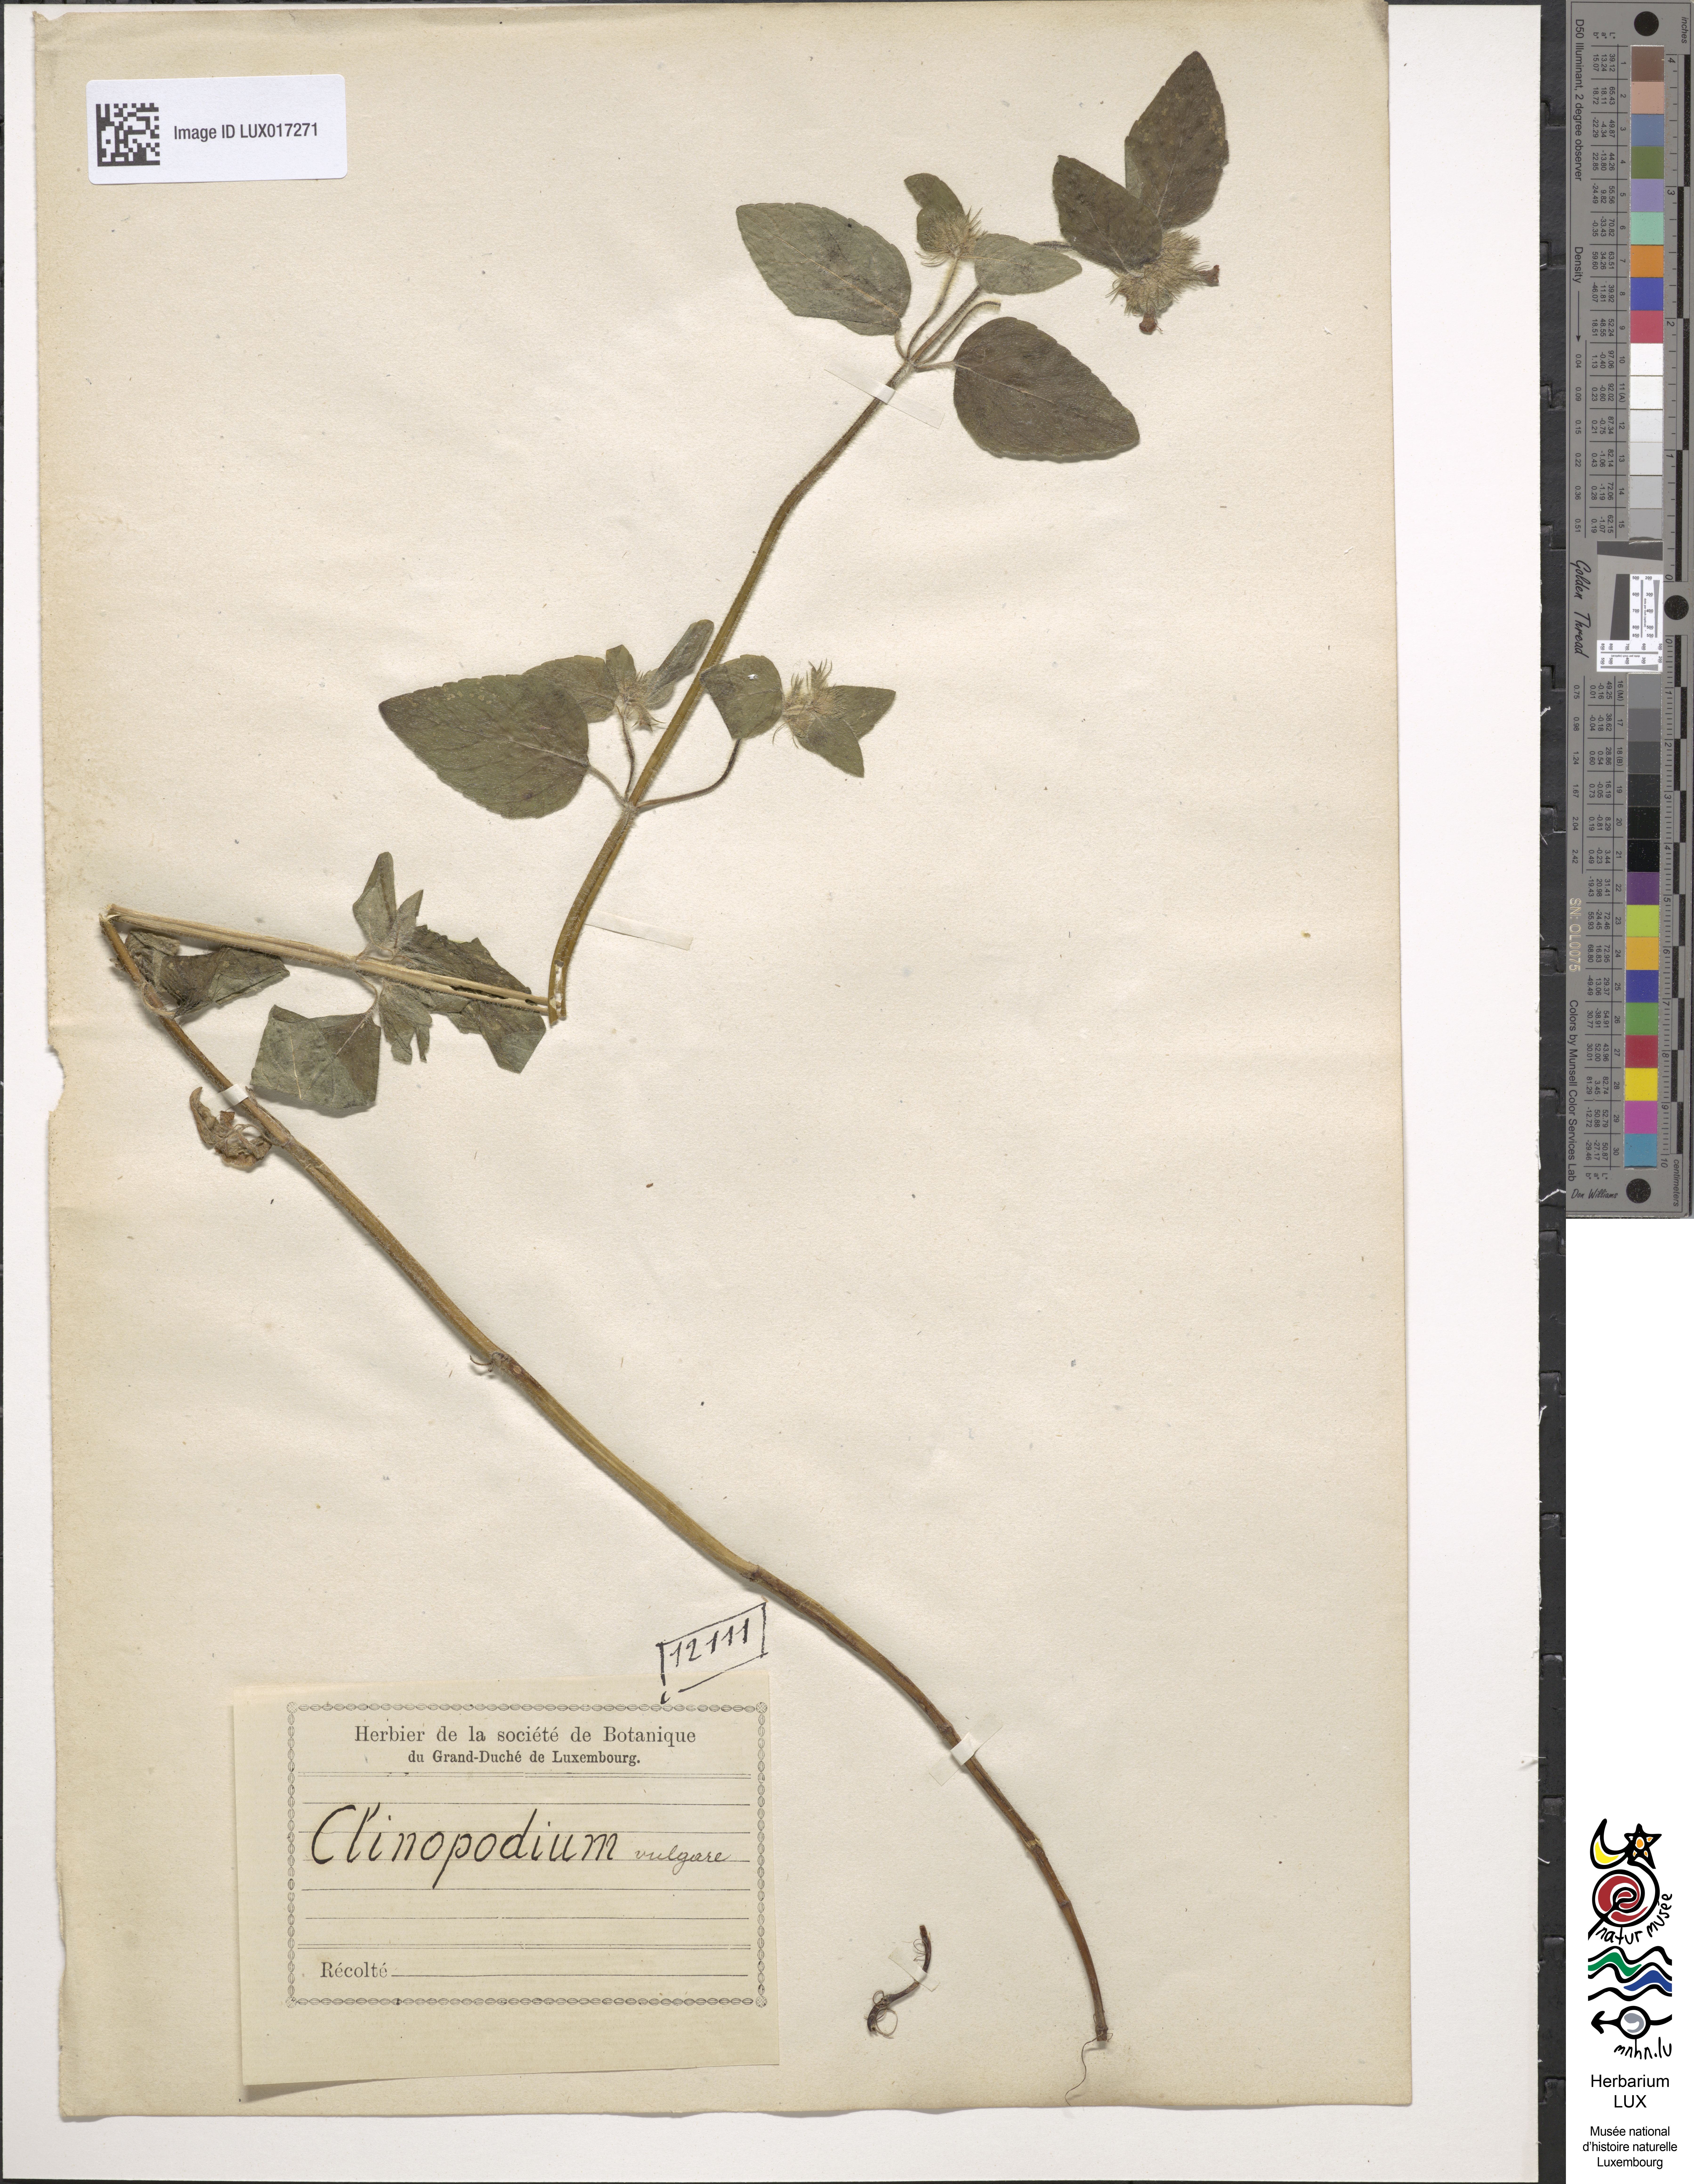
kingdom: Plantae
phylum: Tracheophyta
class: Magnoliopsida
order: Lamiales
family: Lamiaceae
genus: Clinopodium
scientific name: Clinopodium vulgare
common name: Wild basil
